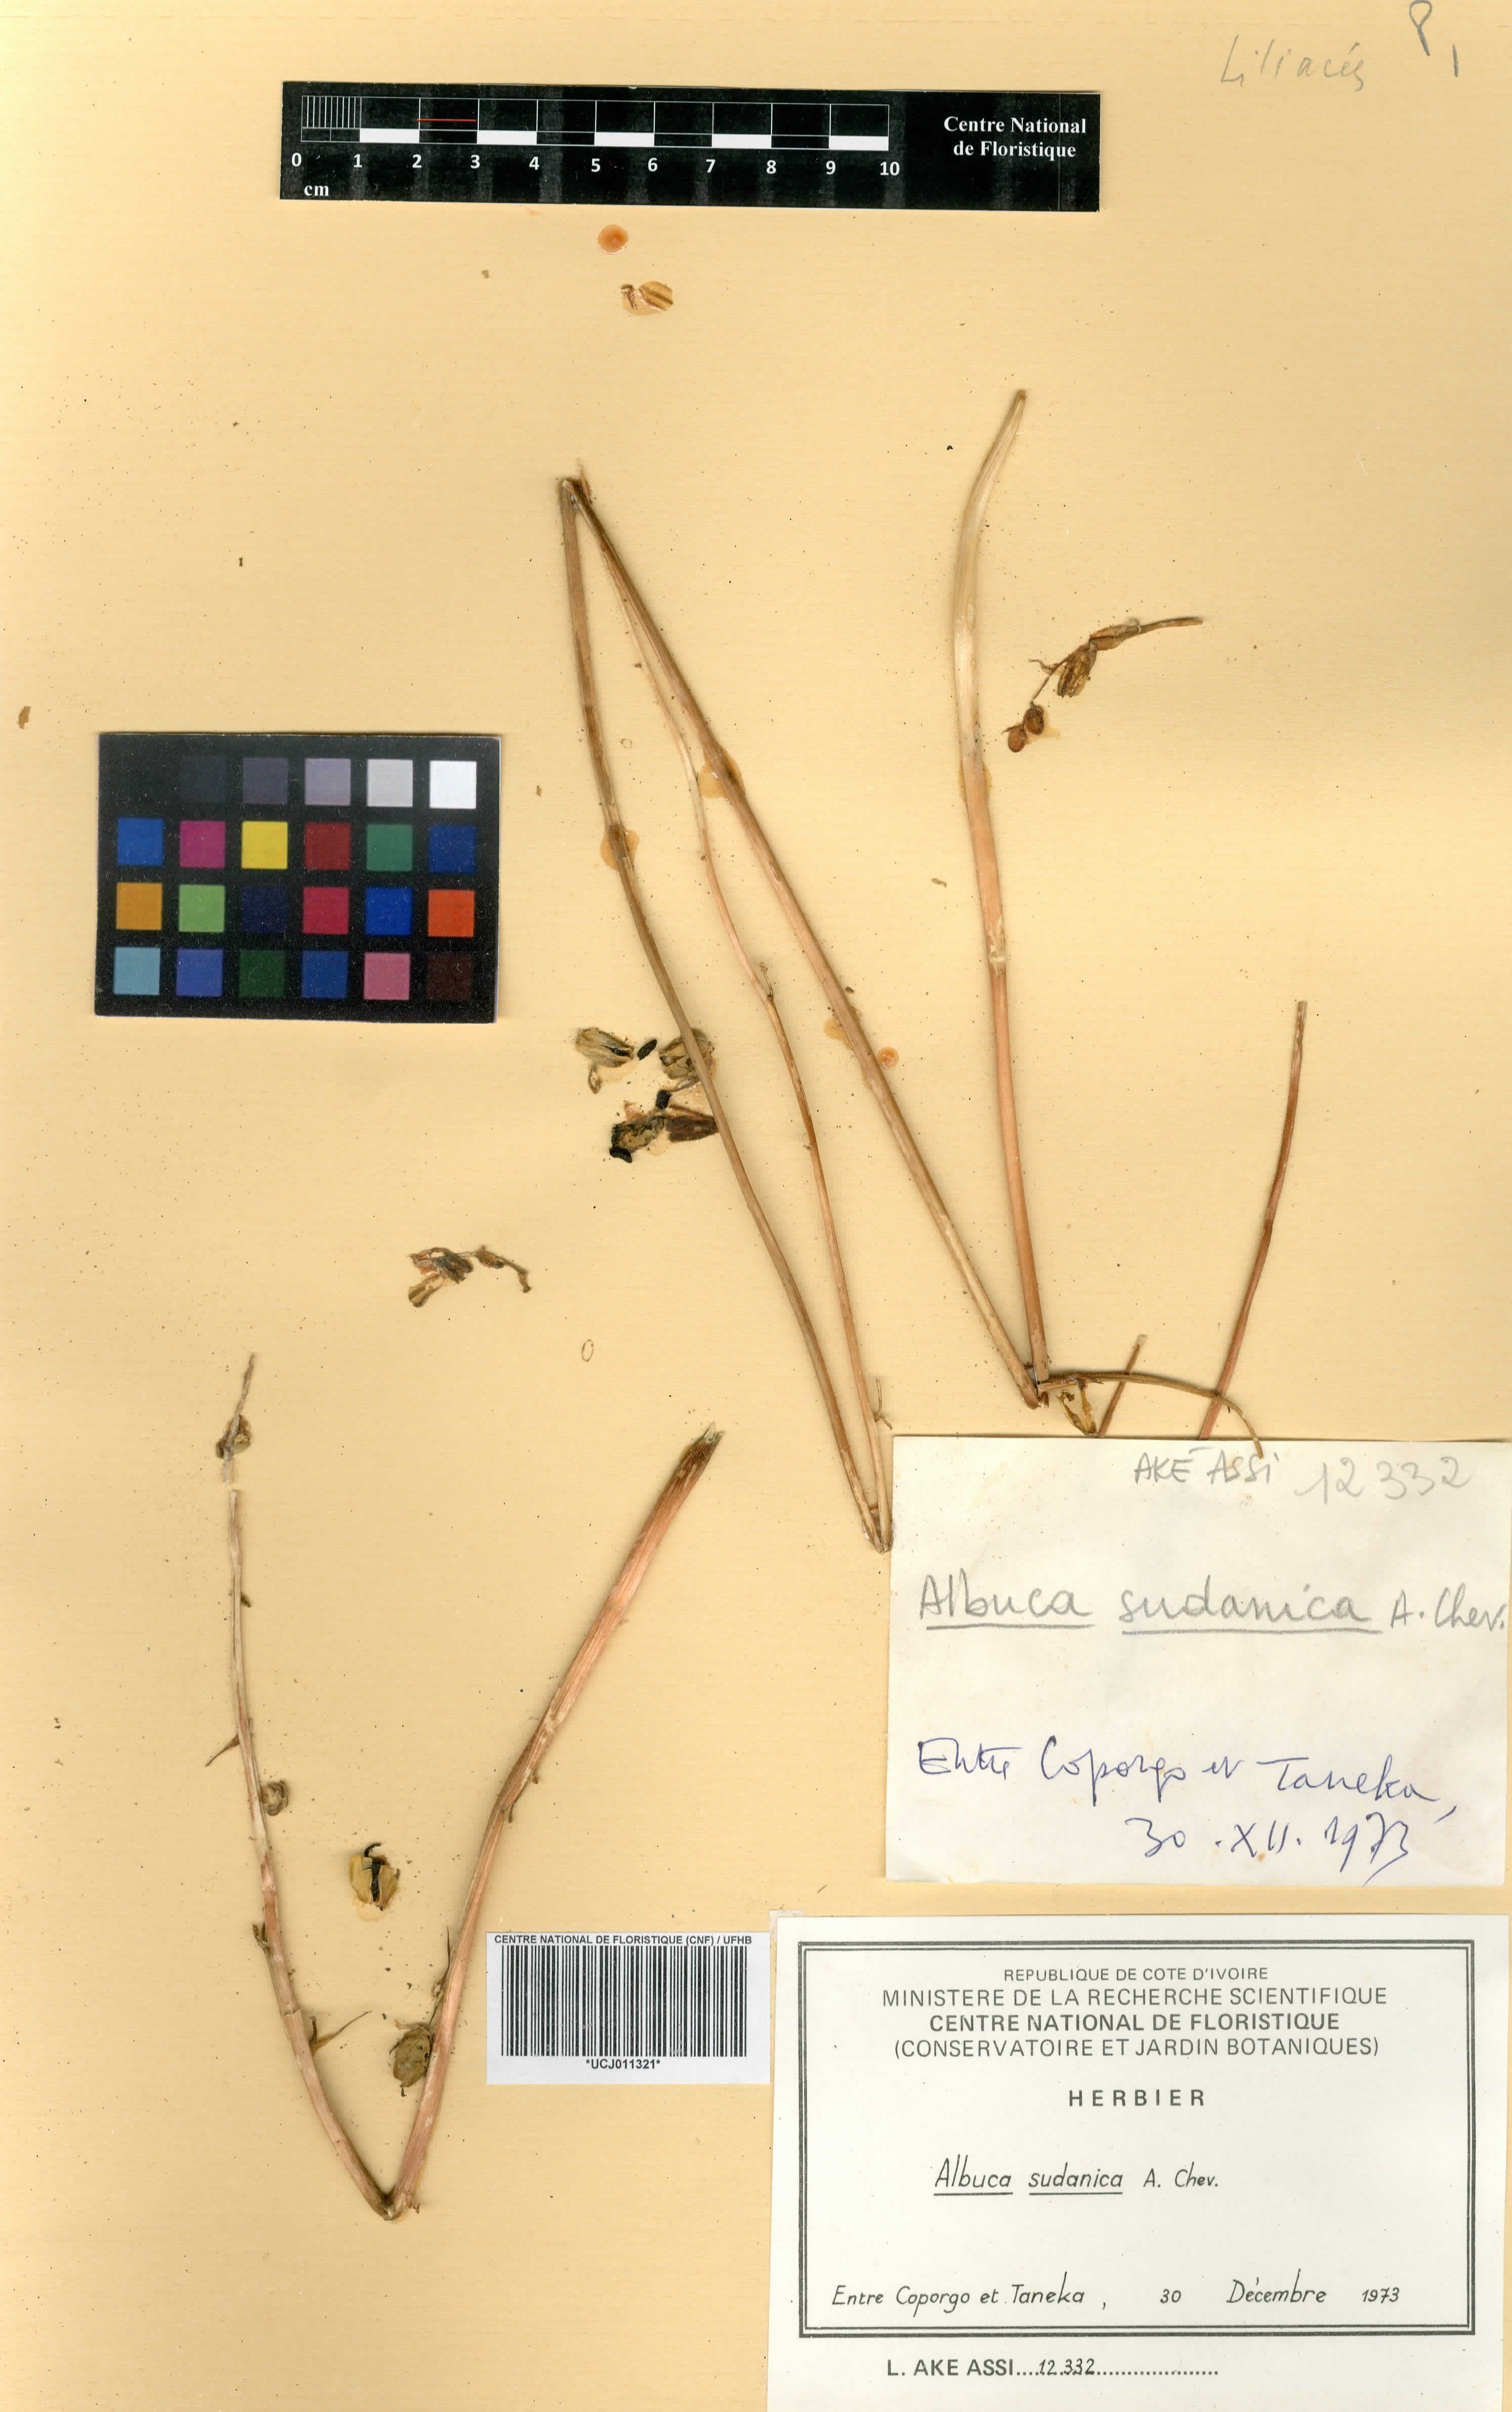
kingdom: Plantae
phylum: Tracheophyta
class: Liliopsida
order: Asparagales
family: Asphodelaceae
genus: Aloe
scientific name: Aloe schweinfurthii
